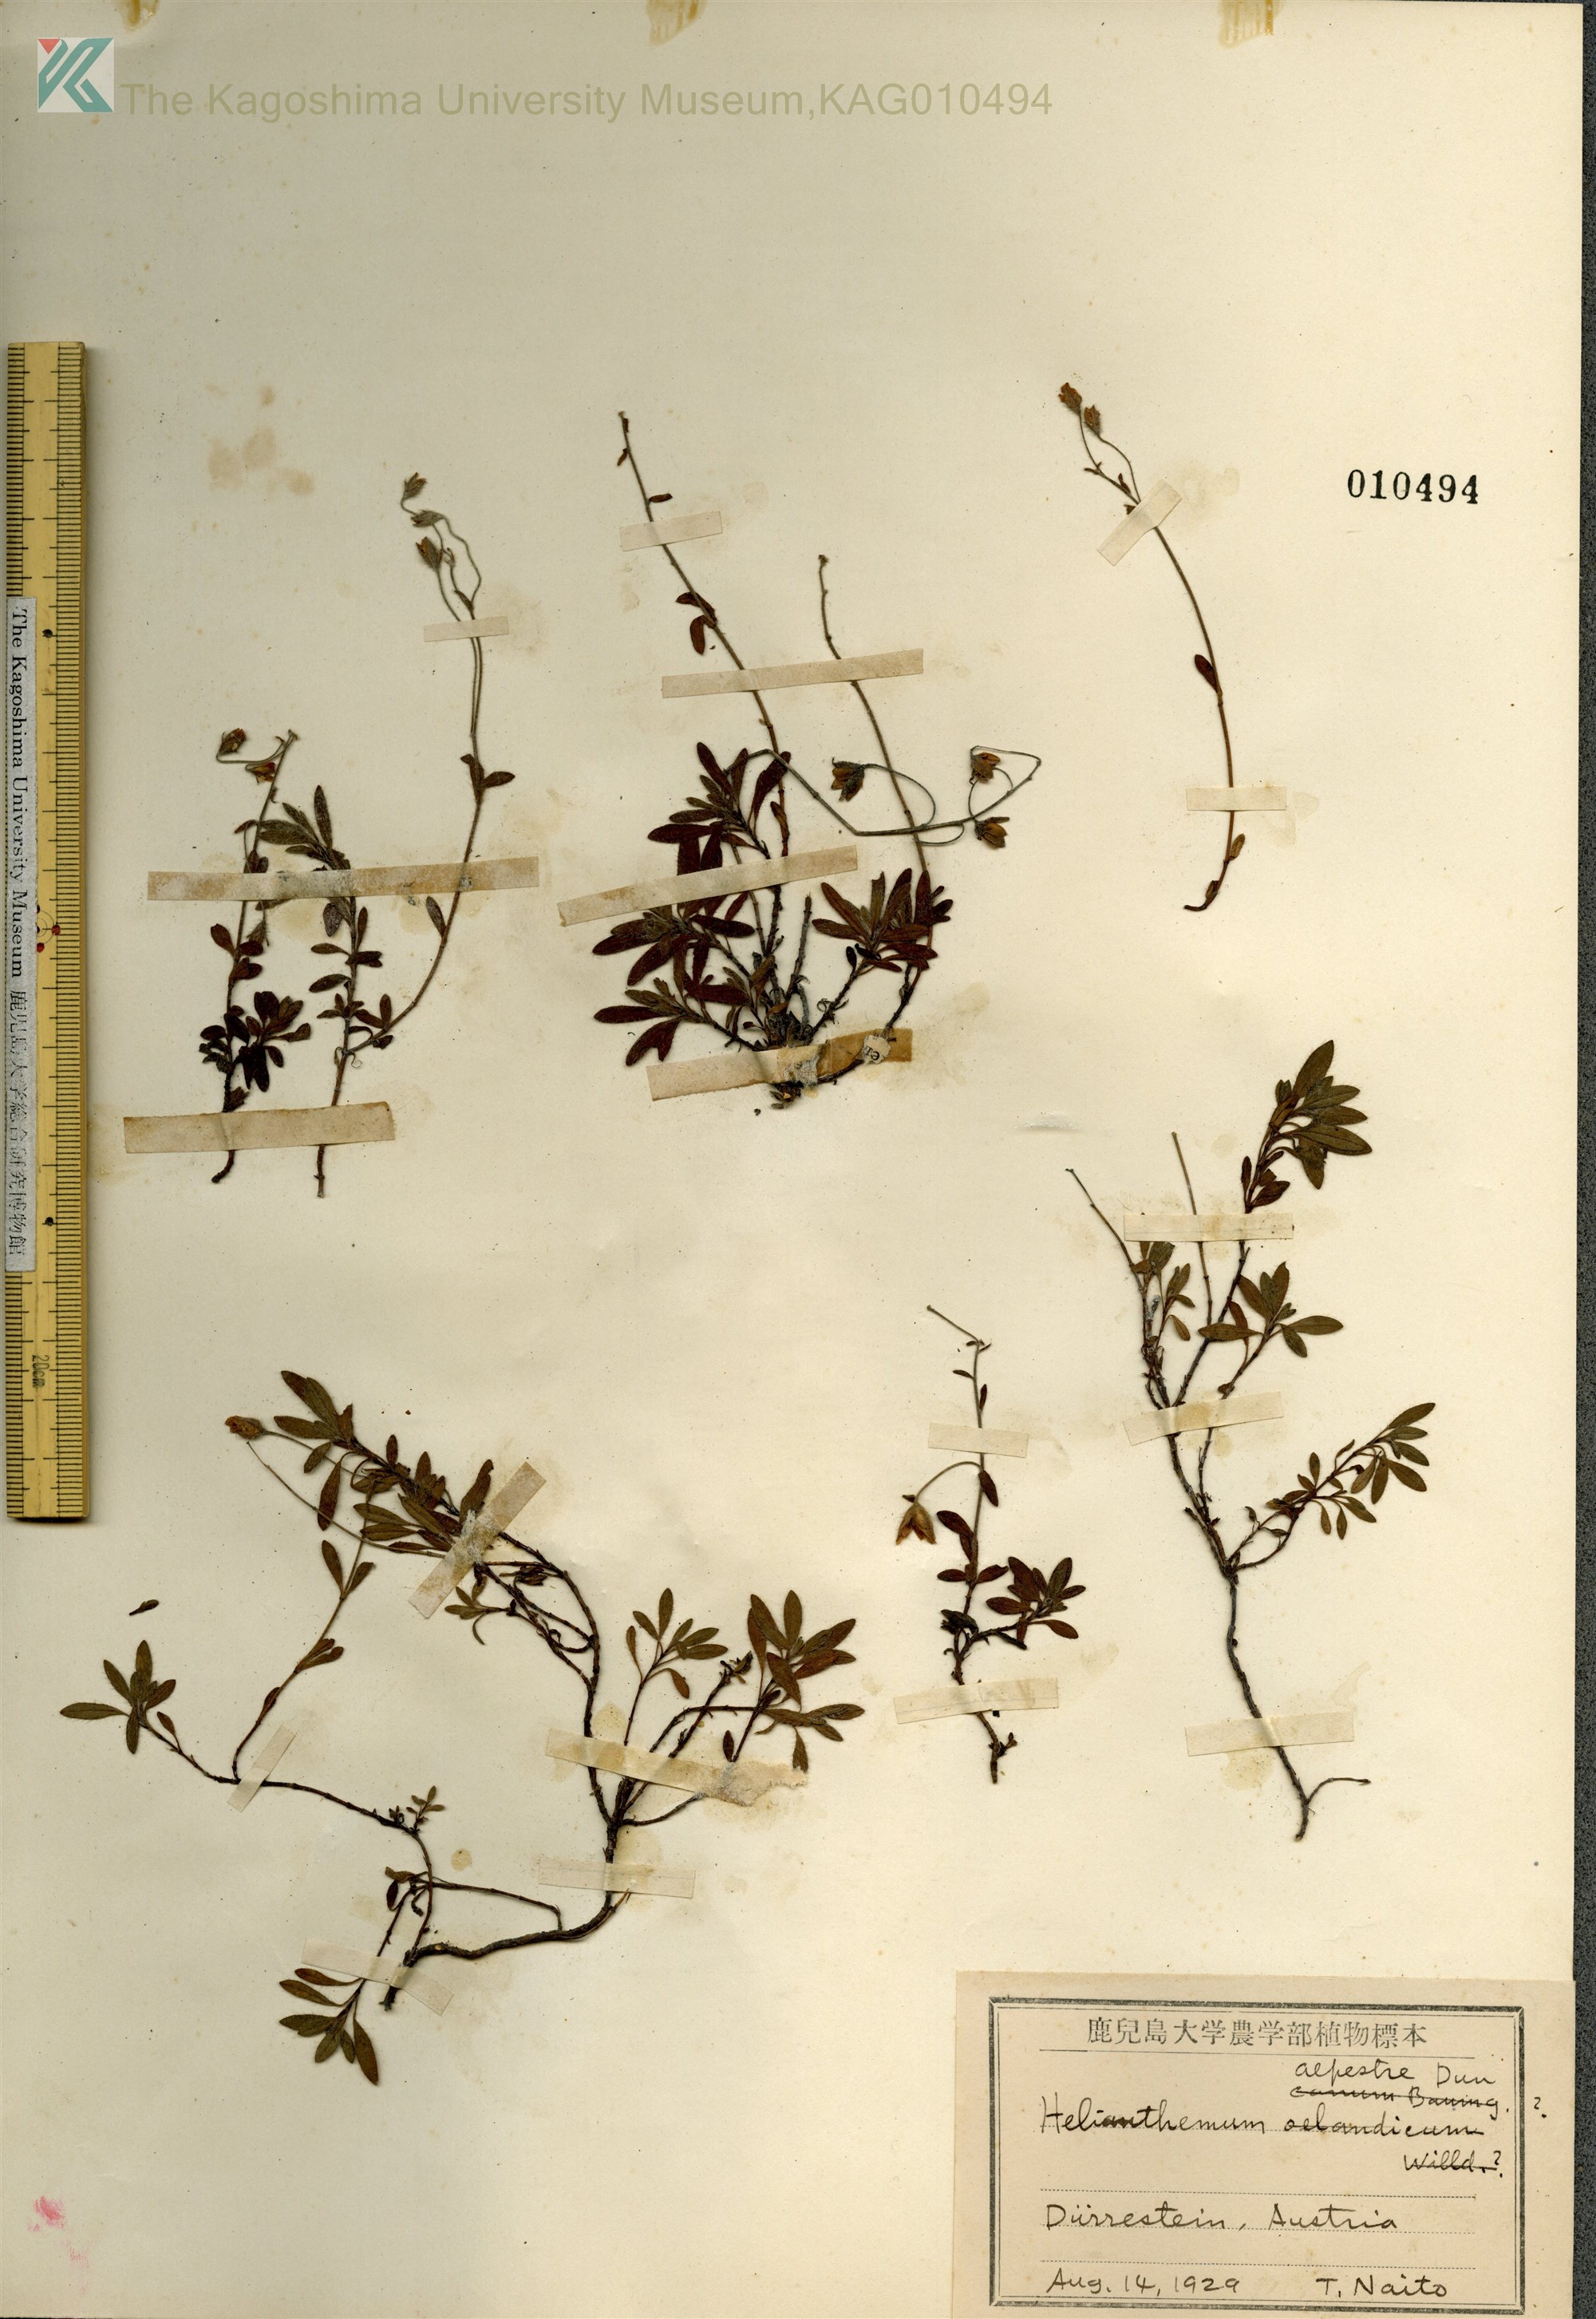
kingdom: Plantae
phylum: Tracheophyta
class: Magnoliopsida
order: Malvales
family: Cistaceae
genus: Helianthemum
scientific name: Helianthemum alpestre
